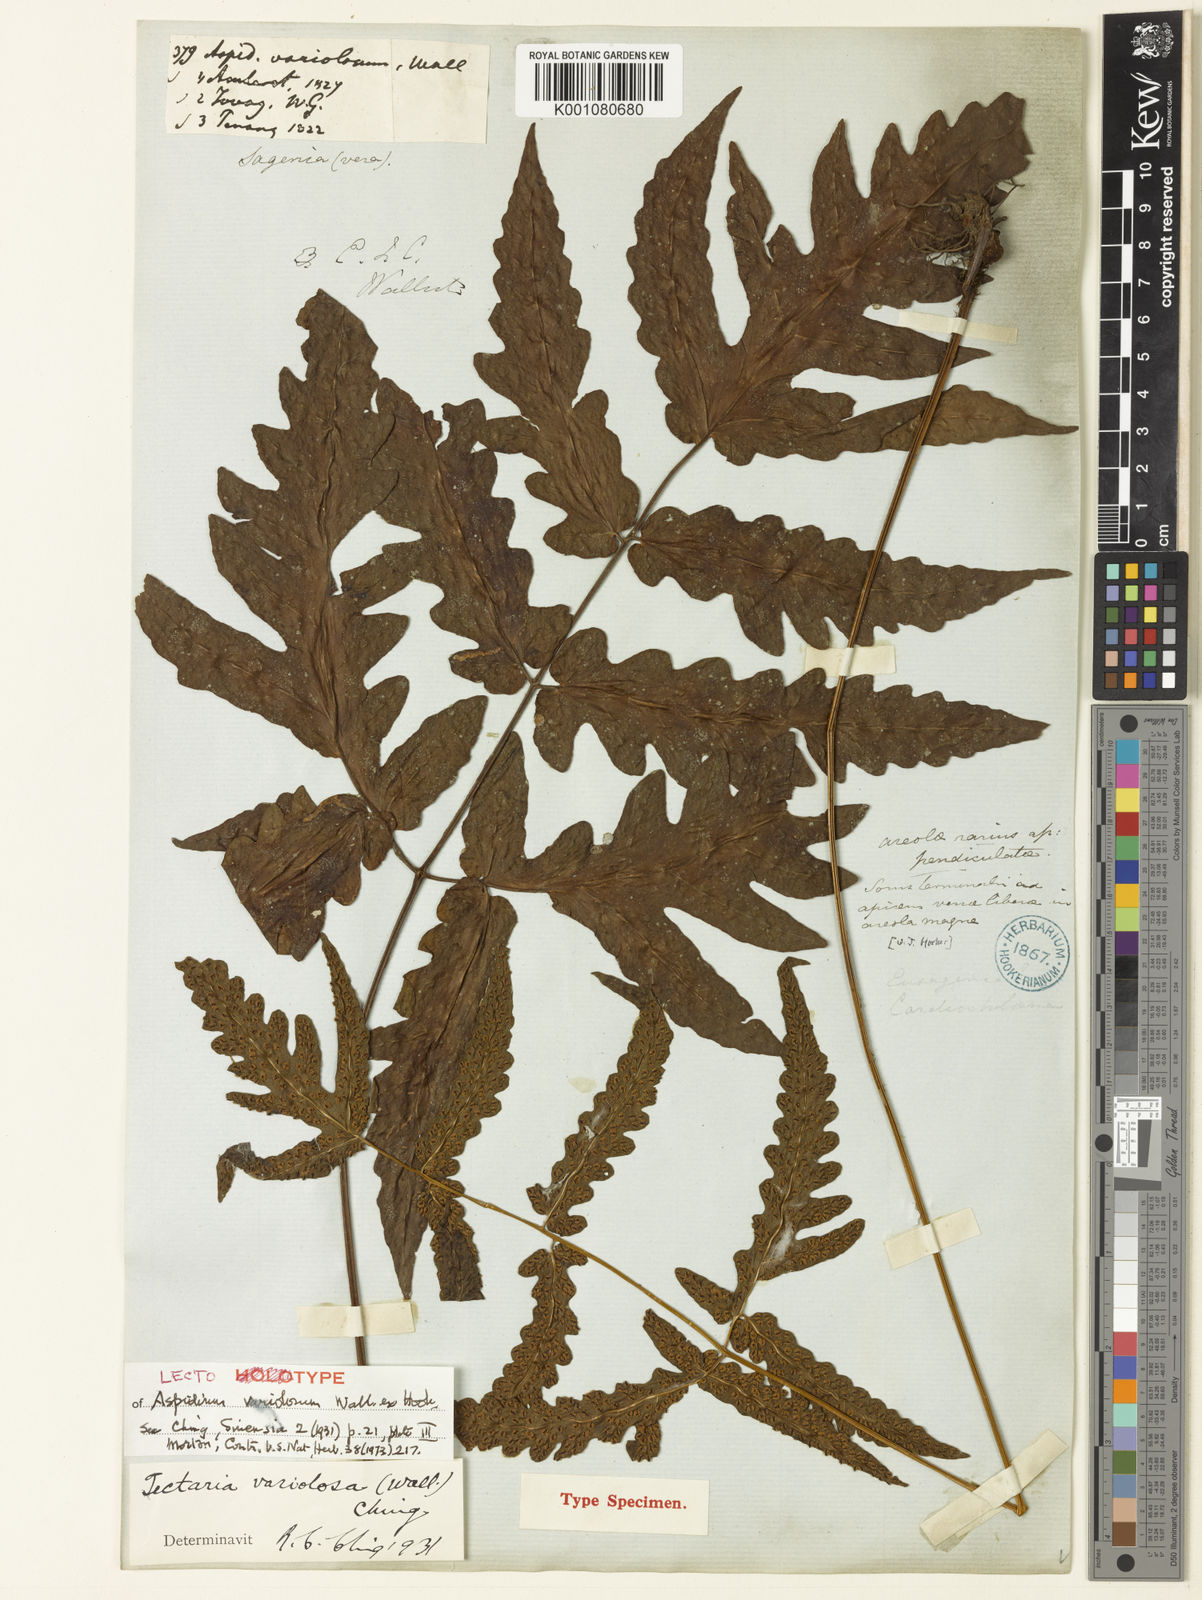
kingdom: Plantae
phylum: Tracheophyta
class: Polypodiopsida
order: Polypodiales
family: Tectariaceae
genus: Tectaria
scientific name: Tectaria
